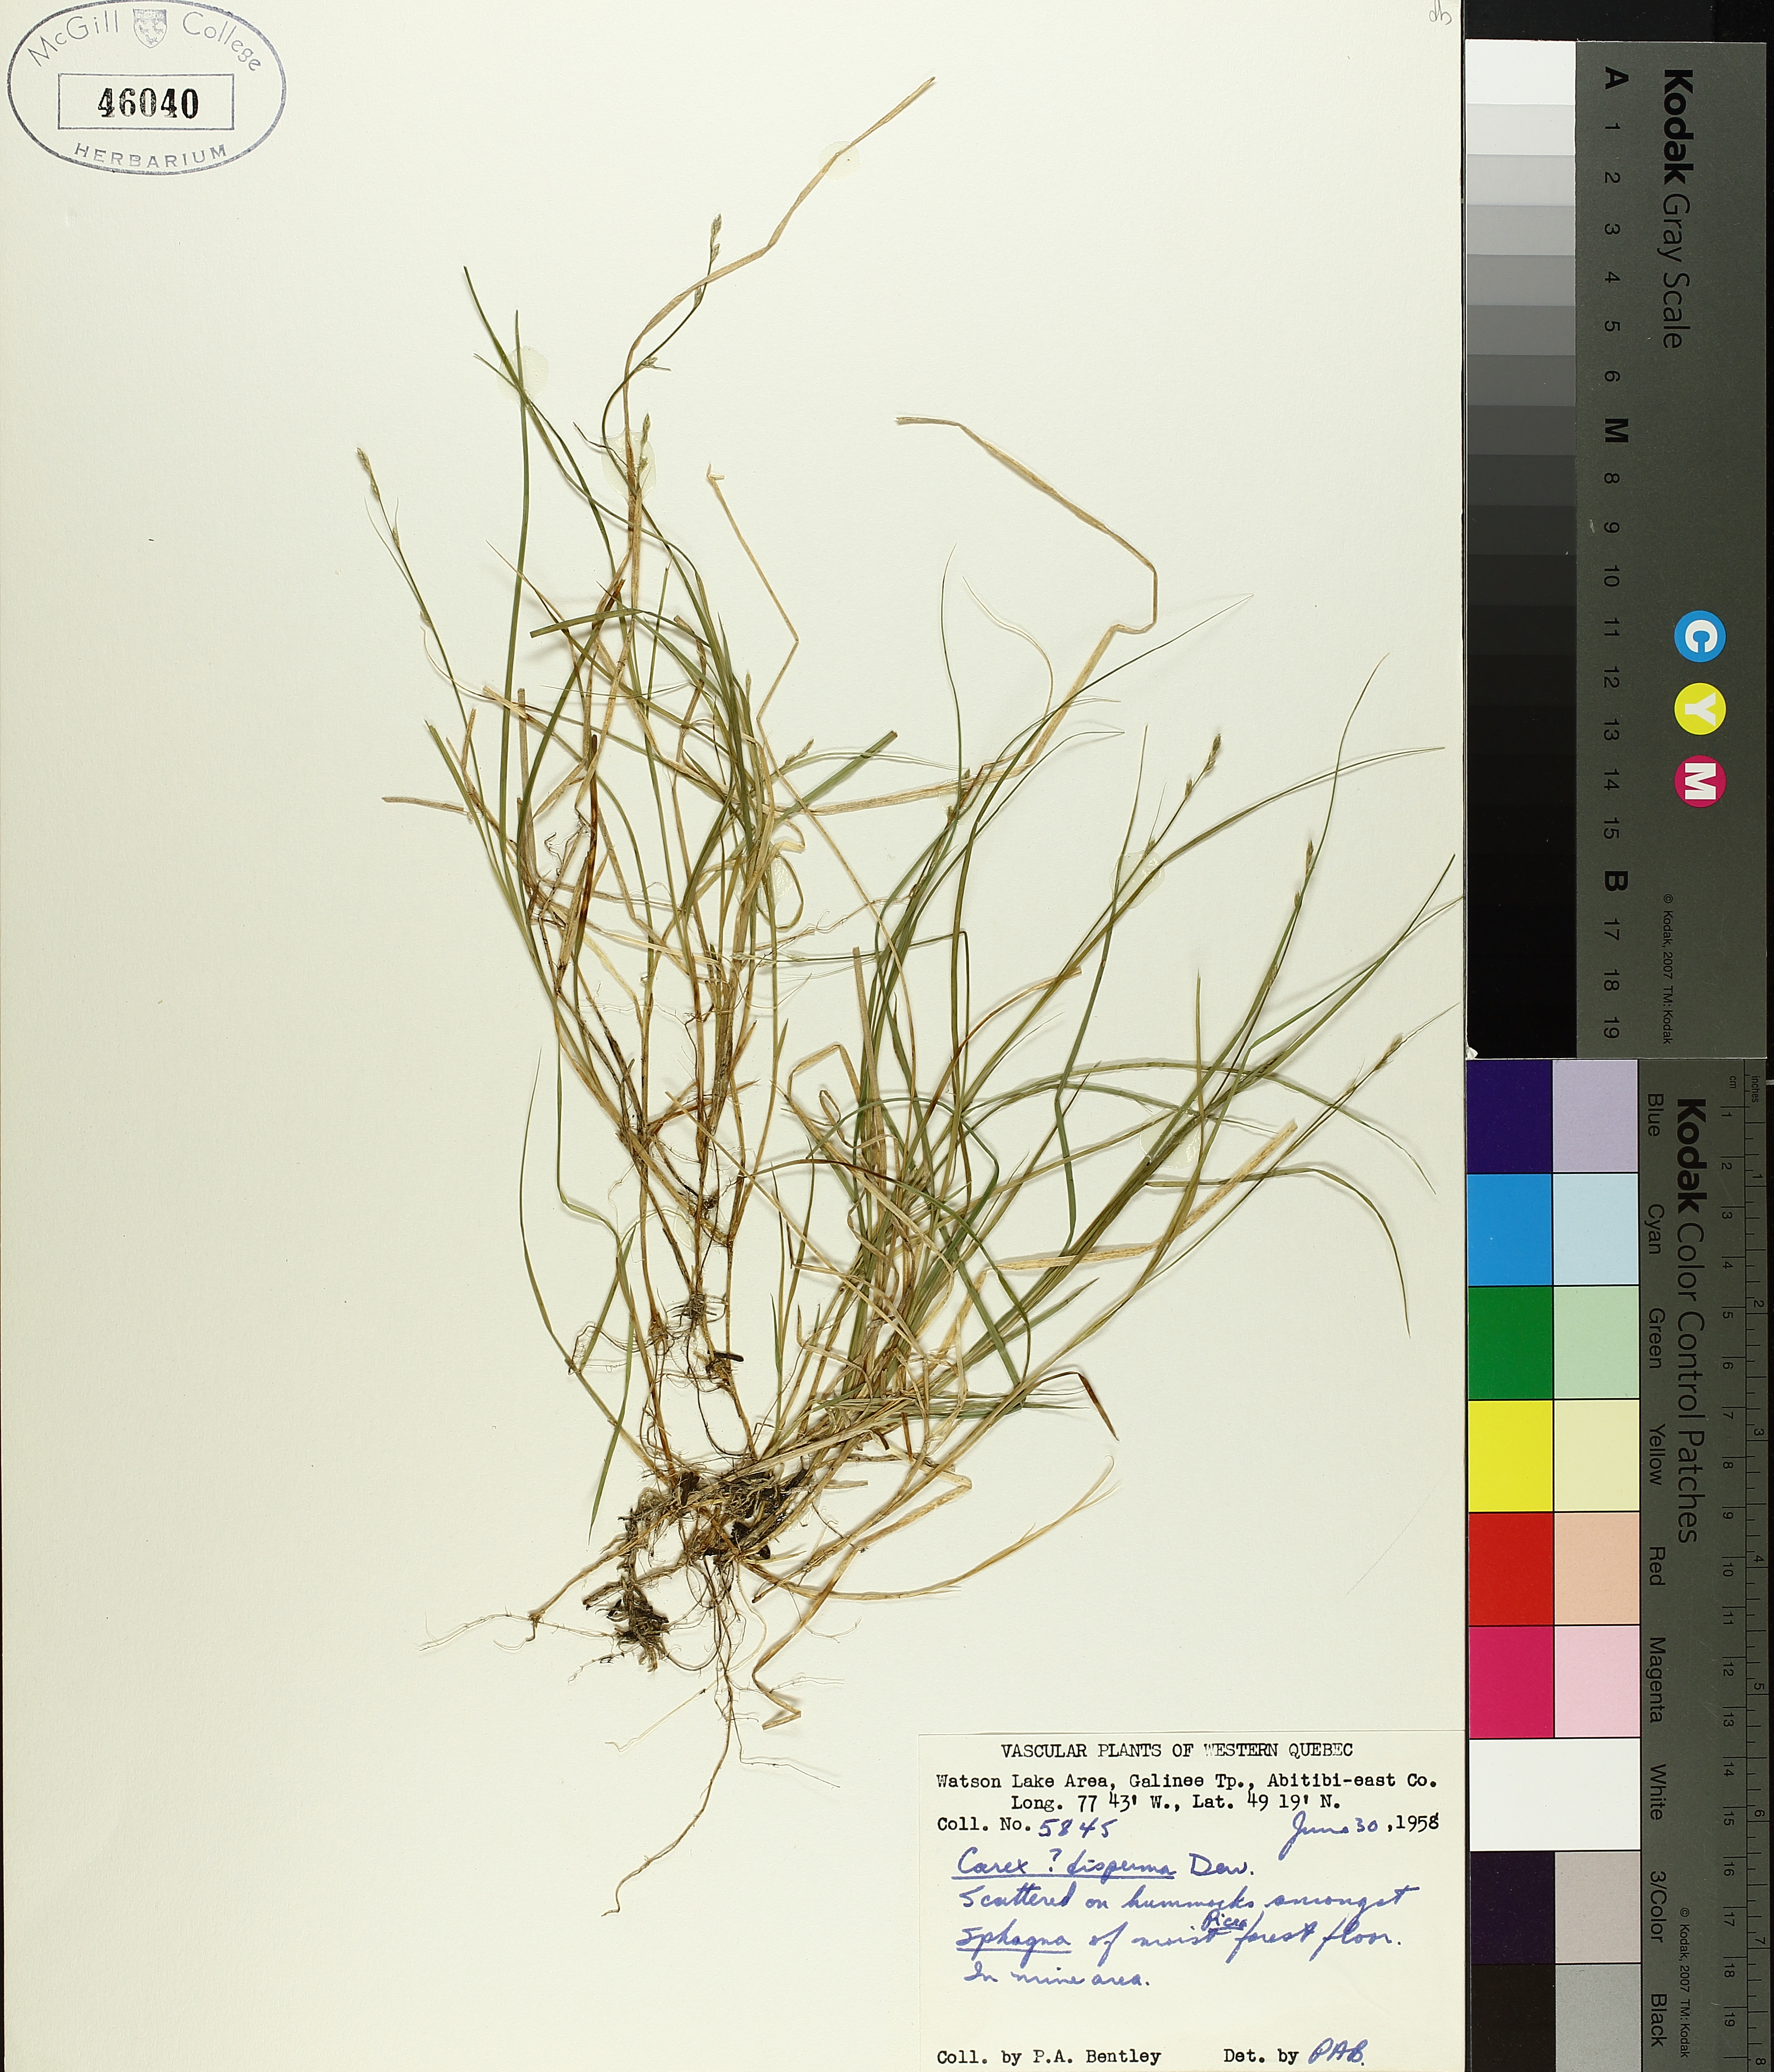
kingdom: Plantae
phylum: Tracheophyta
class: Liliopsida
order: Poales
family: Cyperaceae
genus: Carex
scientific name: Carex disperma
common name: Short-leaved sedge
